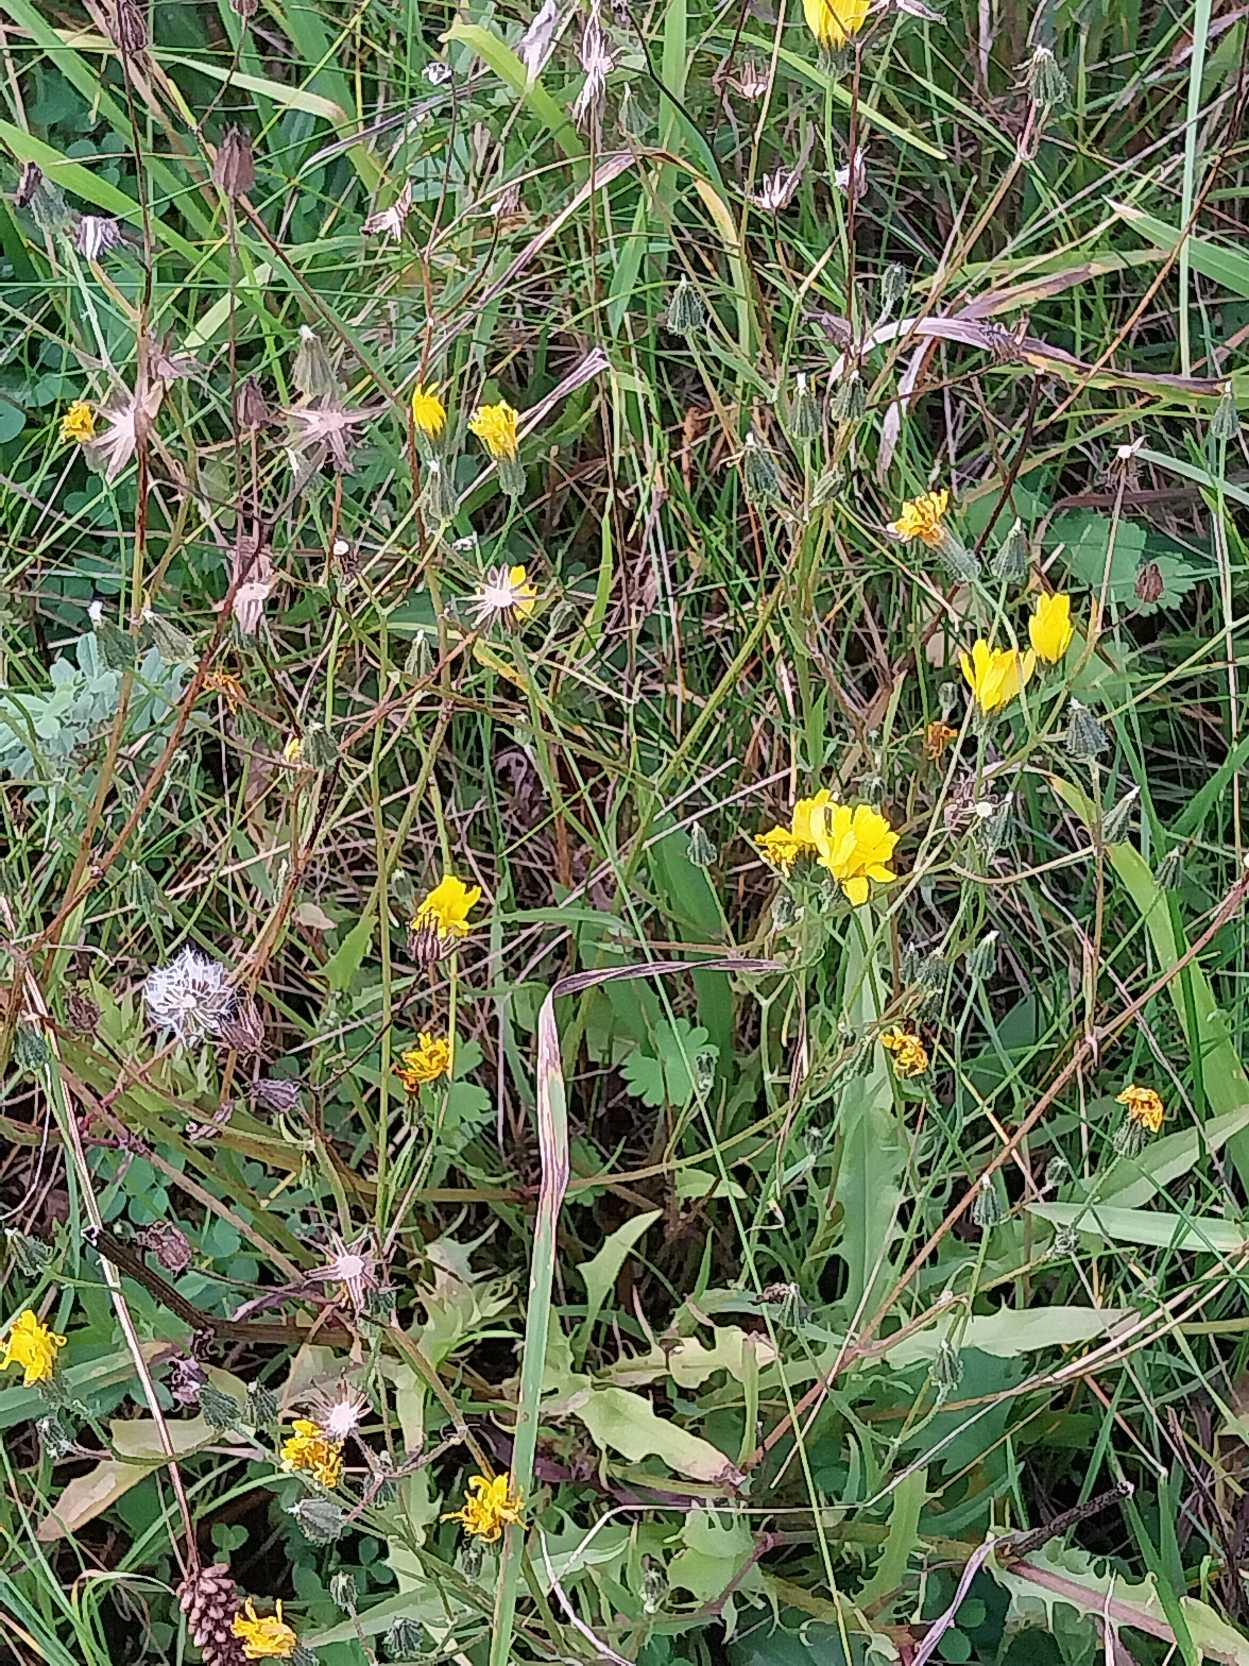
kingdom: Plantae
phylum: Tracheophyta
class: Magnoliopsida
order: Asterales
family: Asteraceae
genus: Crepis
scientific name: Crepis capillaris
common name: Grøn høgeskæg
